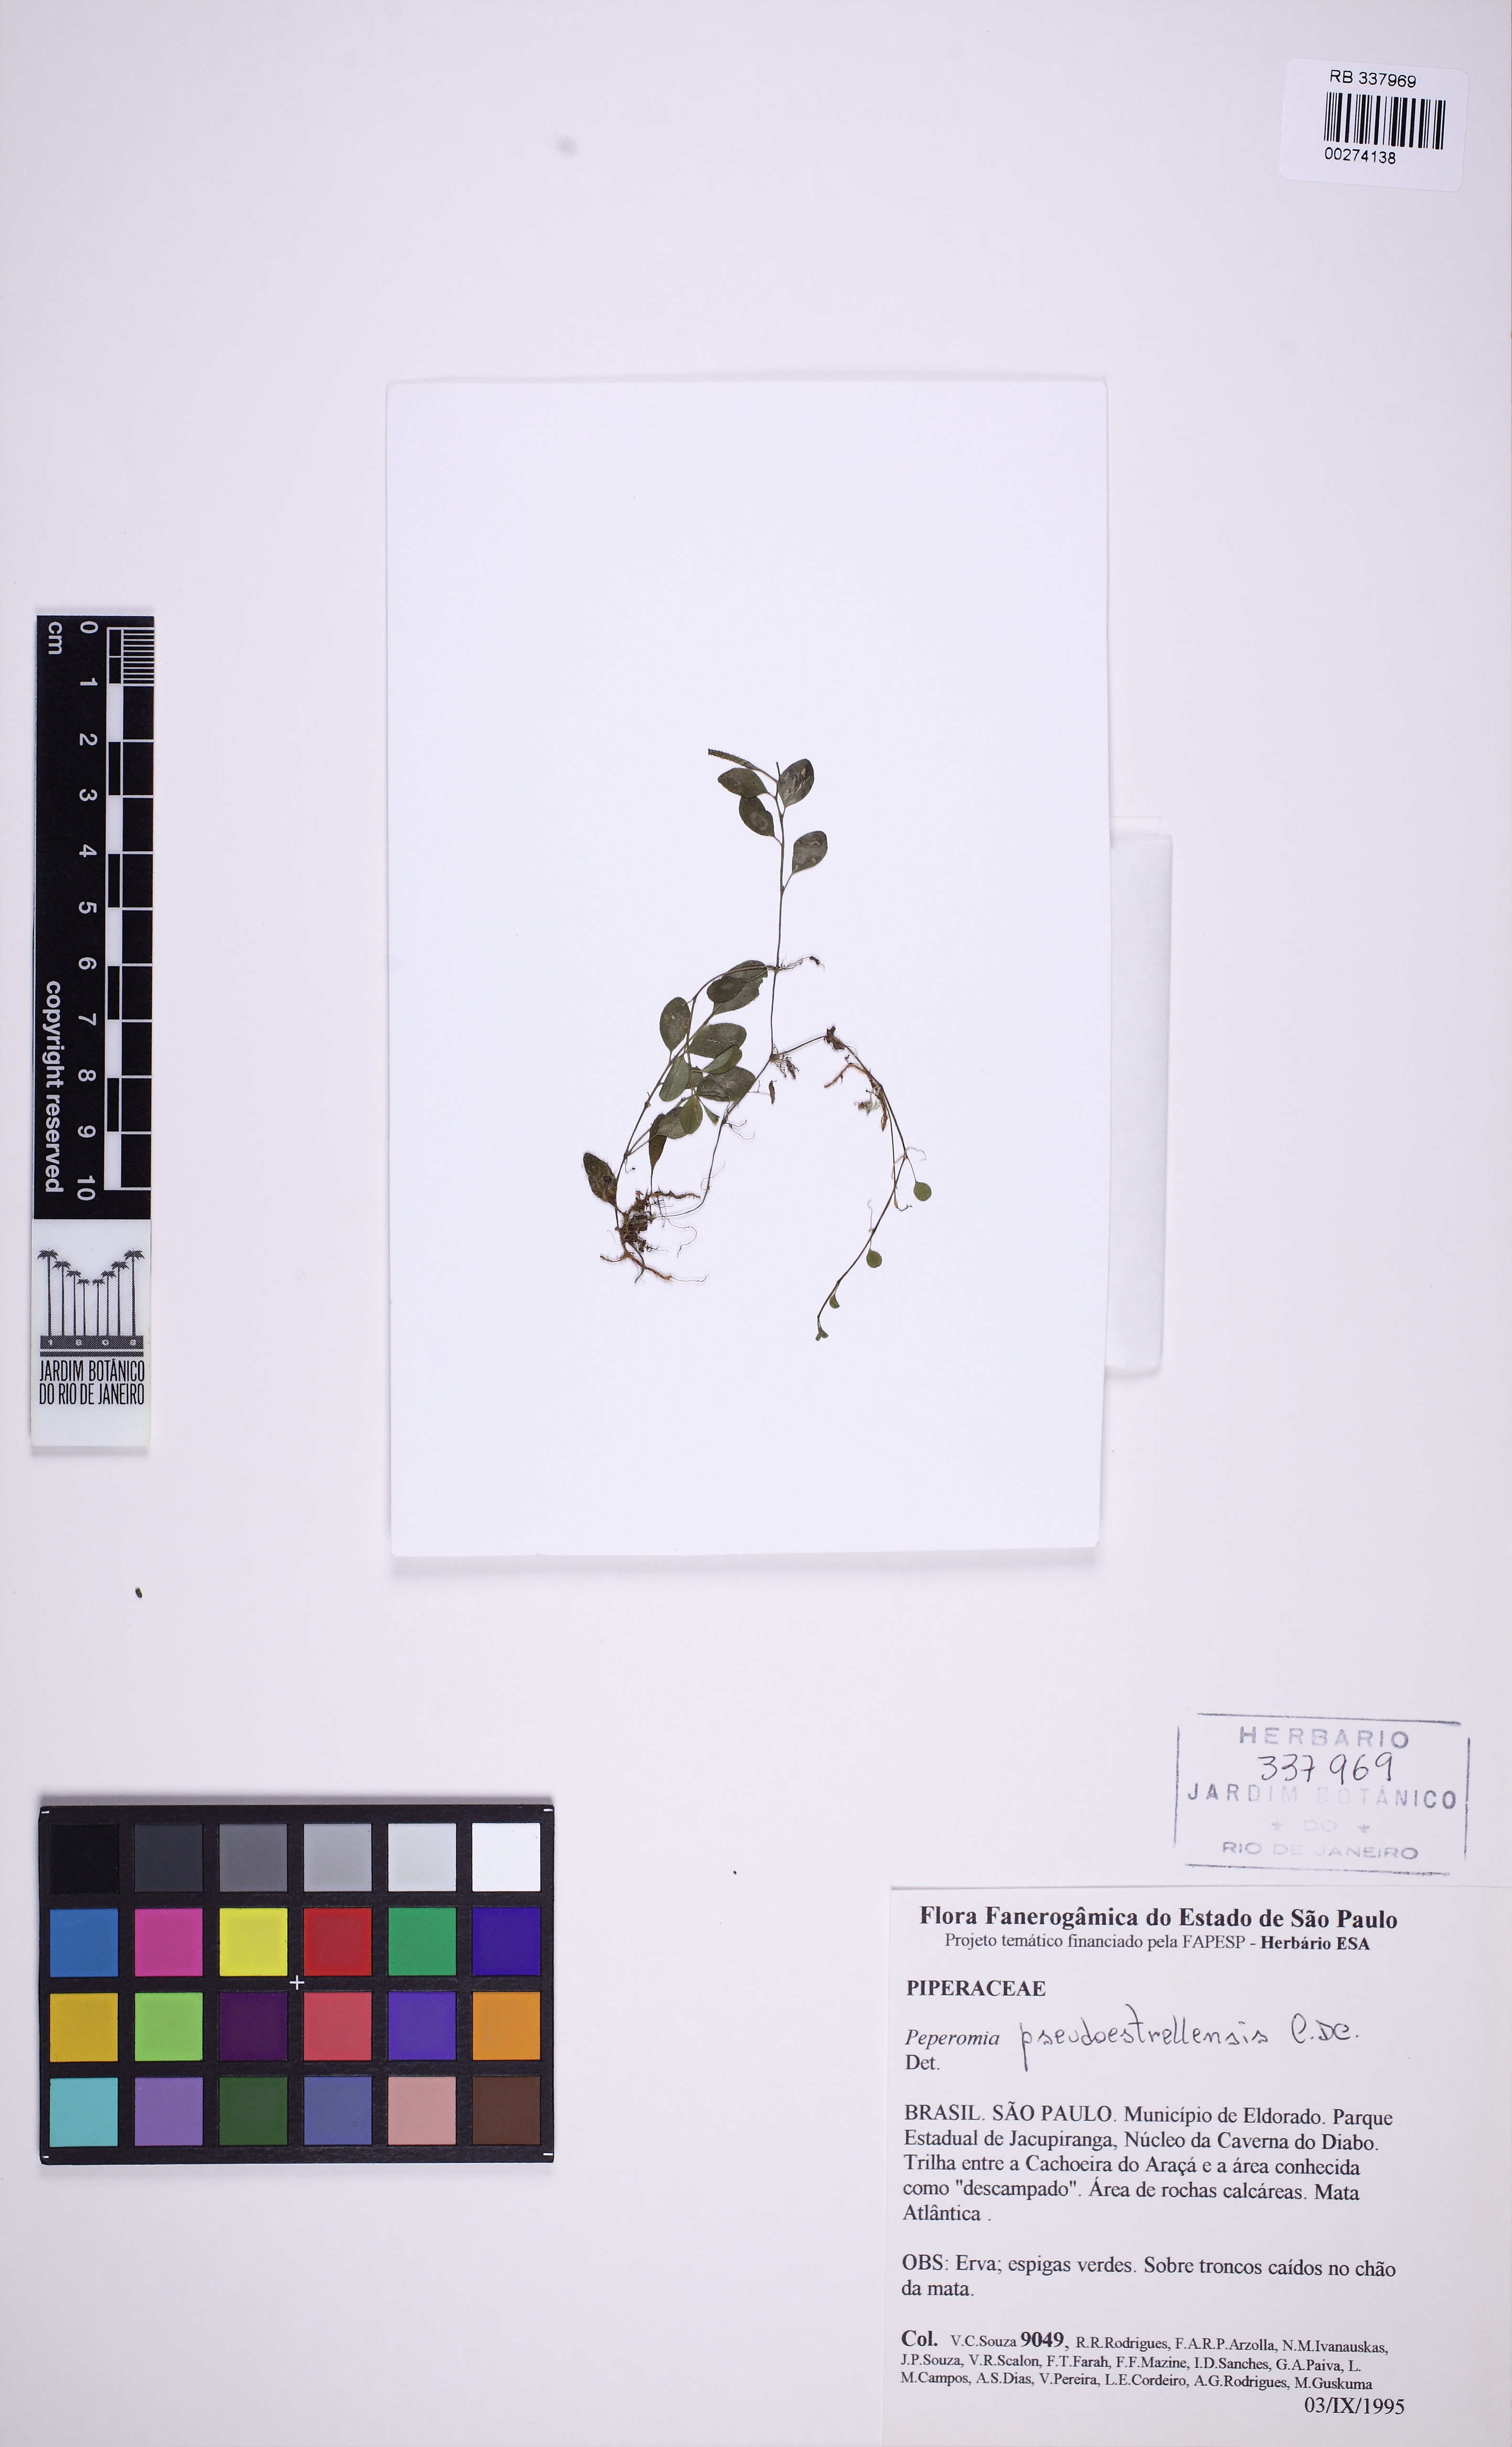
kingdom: Plantae
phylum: Tracheophyta
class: Magnoliopsida
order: Piperales
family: Piperaceae
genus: Peperomia
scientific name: Peperomia pseudoestrellensis
